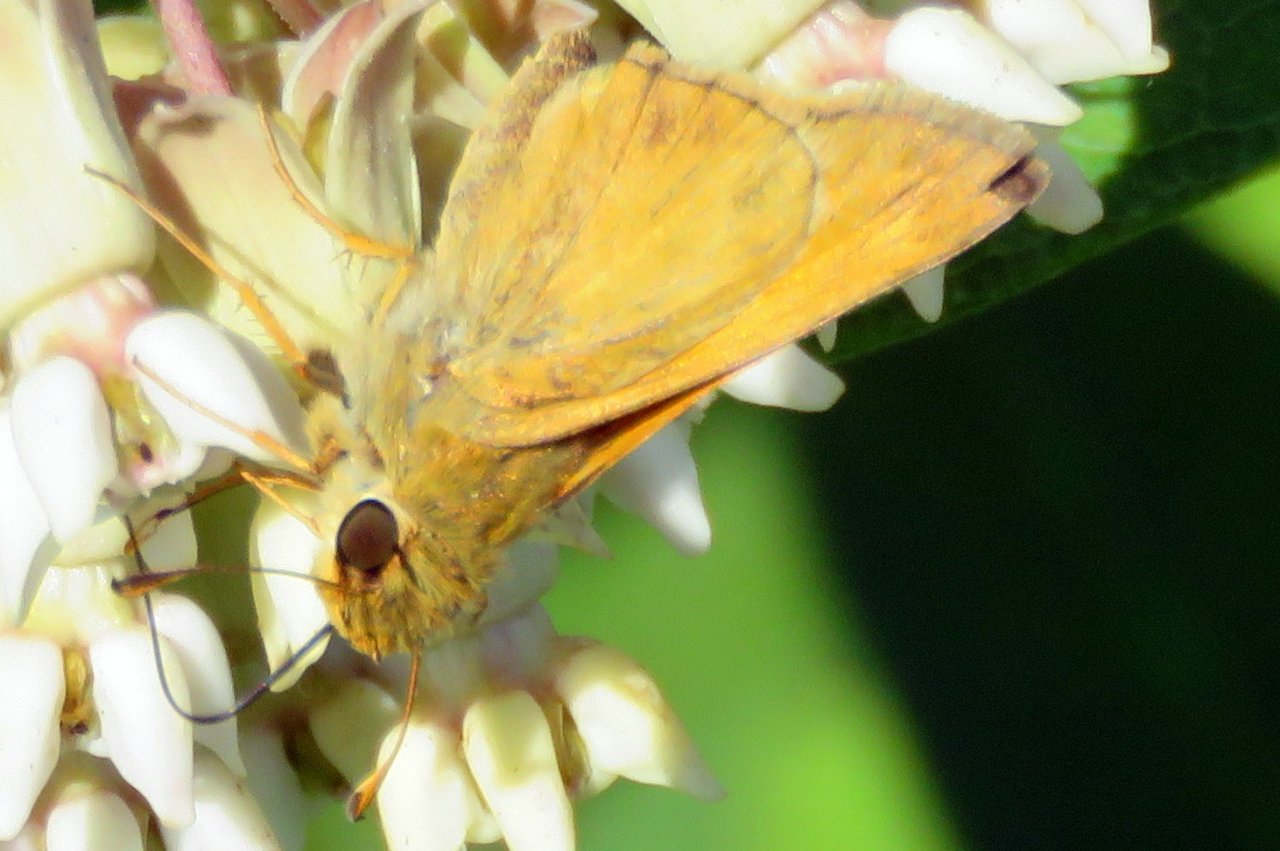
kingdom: Animalia
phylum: Arthropoda
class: Insecta
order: Lepidoptera
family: Hesperiidae
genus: Atrytone
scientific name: Atrytone delaware
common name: Delaware Skipper
